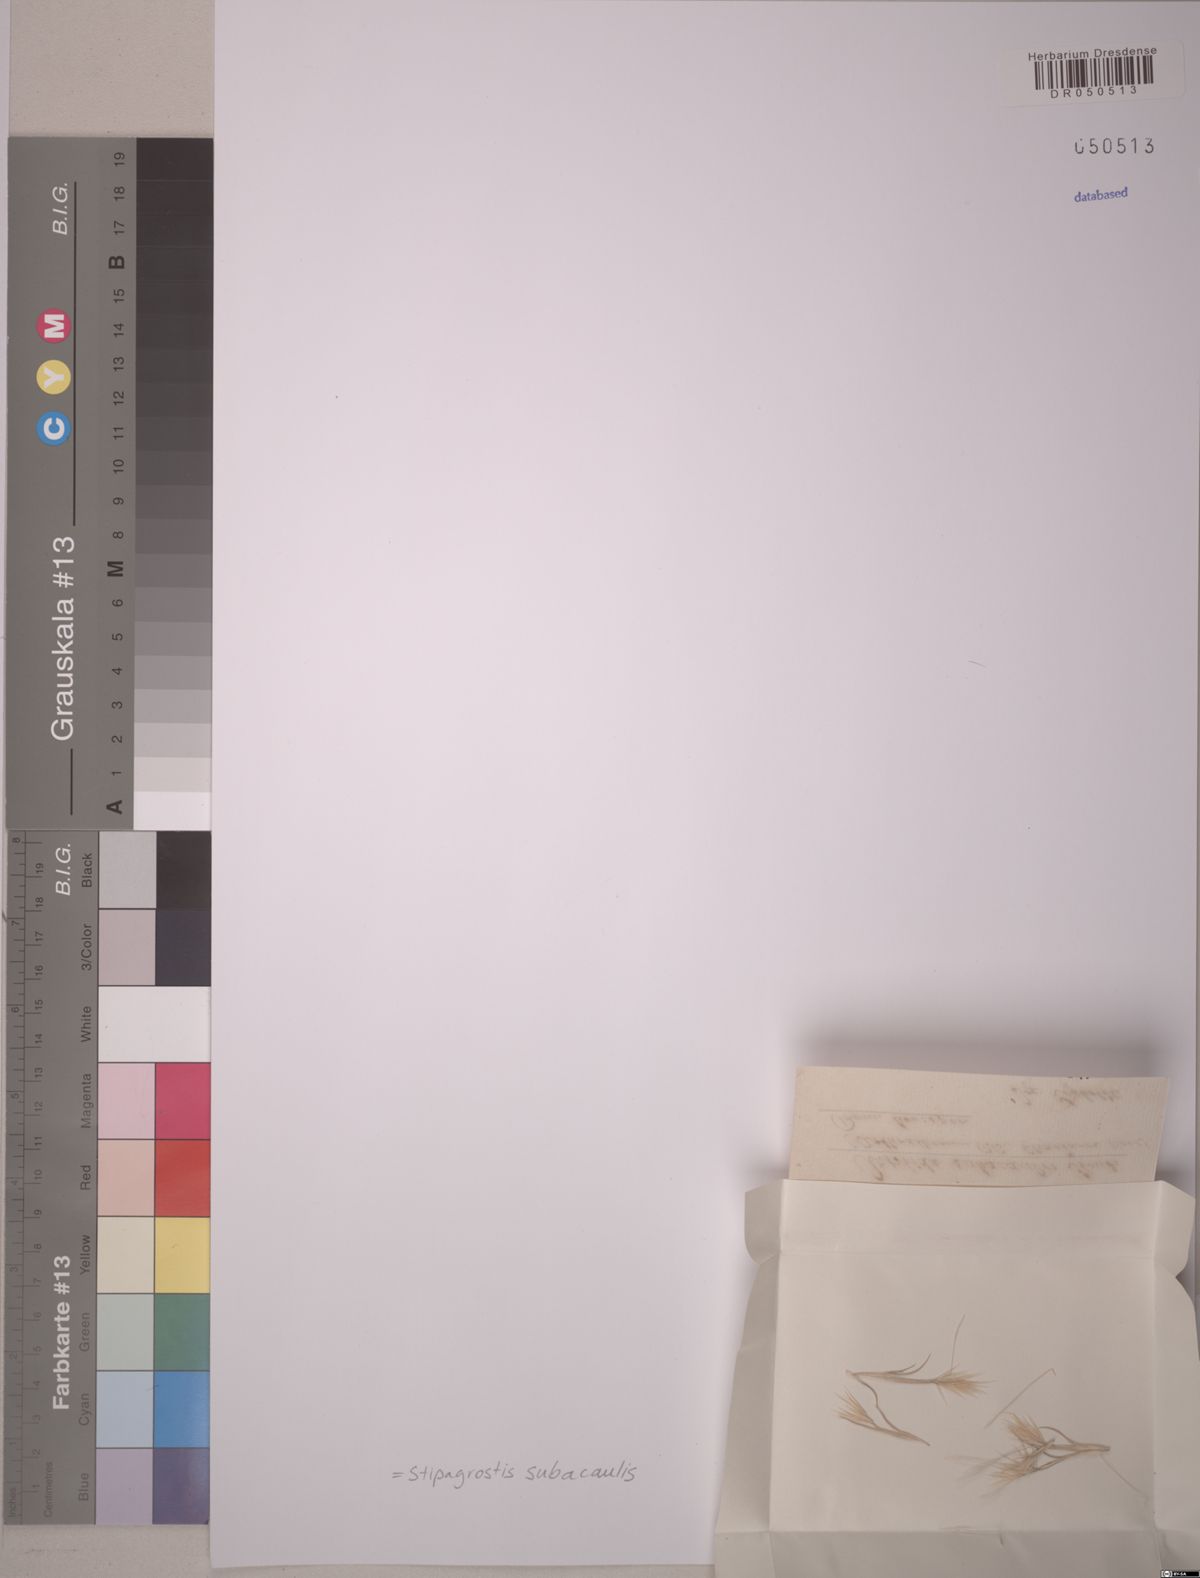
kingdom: Plantae
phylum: Tracheophyta
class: Liliopsida
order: Poales
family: Poaceae
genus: Stipagrostis
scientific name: Stipagrostis subacaulis
